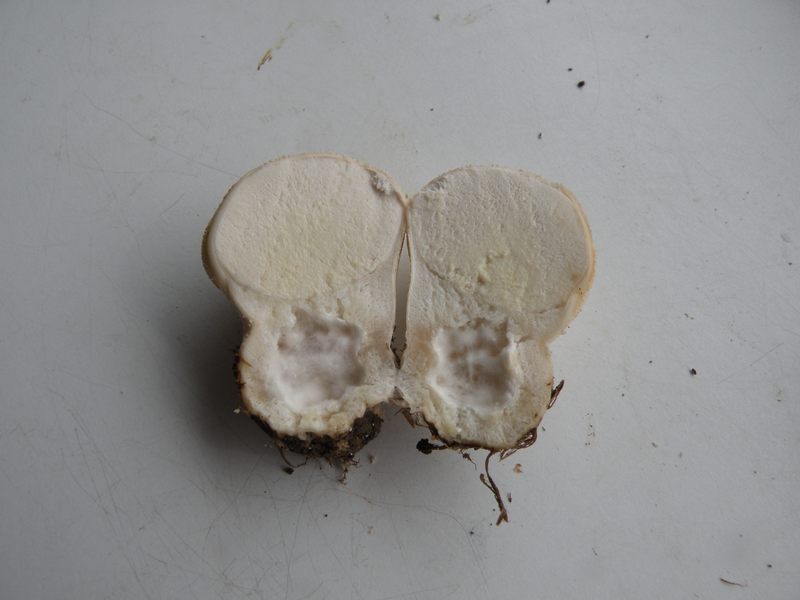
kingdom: Fungi
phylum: Basidiomycota
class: Agaricomycetes
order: Agaricales
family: Lycoperdaceae
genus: Lycoperdon
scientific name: Lycoperdon pratense
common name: flad støvbold
